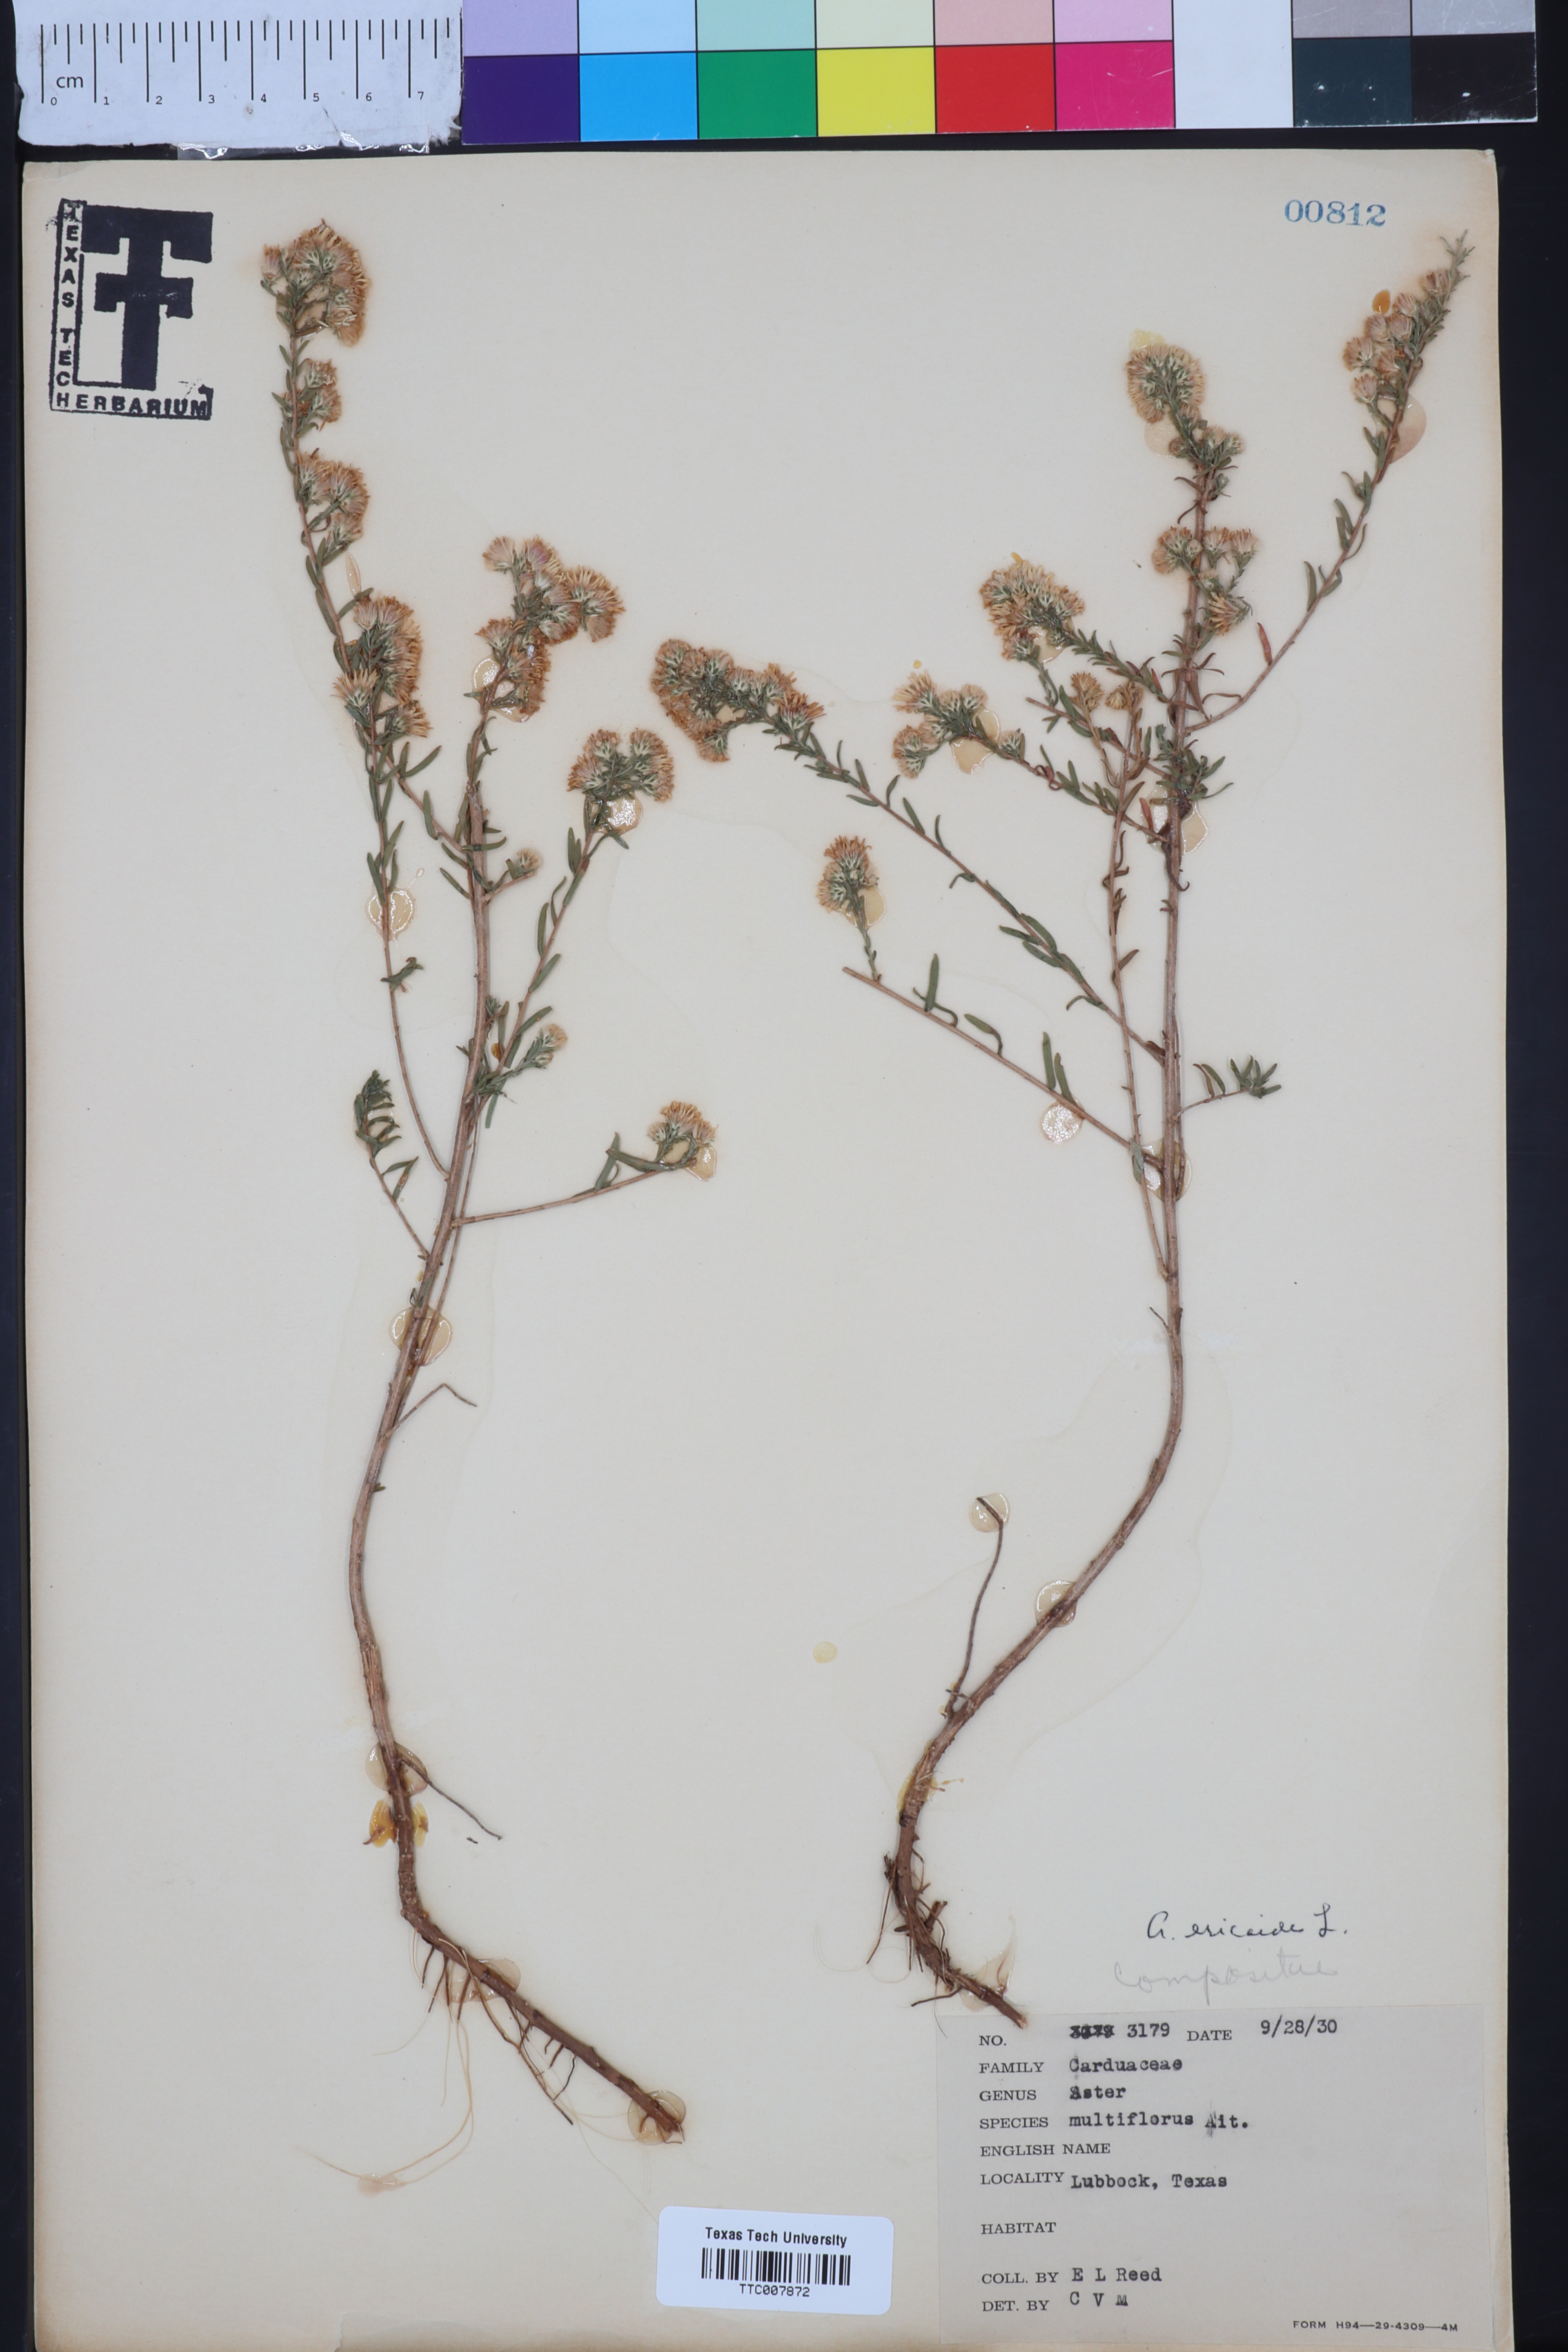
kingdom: Plantae
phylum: Tracheophyta
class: Magnoliopsida
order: Asterales
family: Asteraceae
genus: Symphyotrichum
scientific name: Symphyotrichum ericoides
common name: Heath aster
